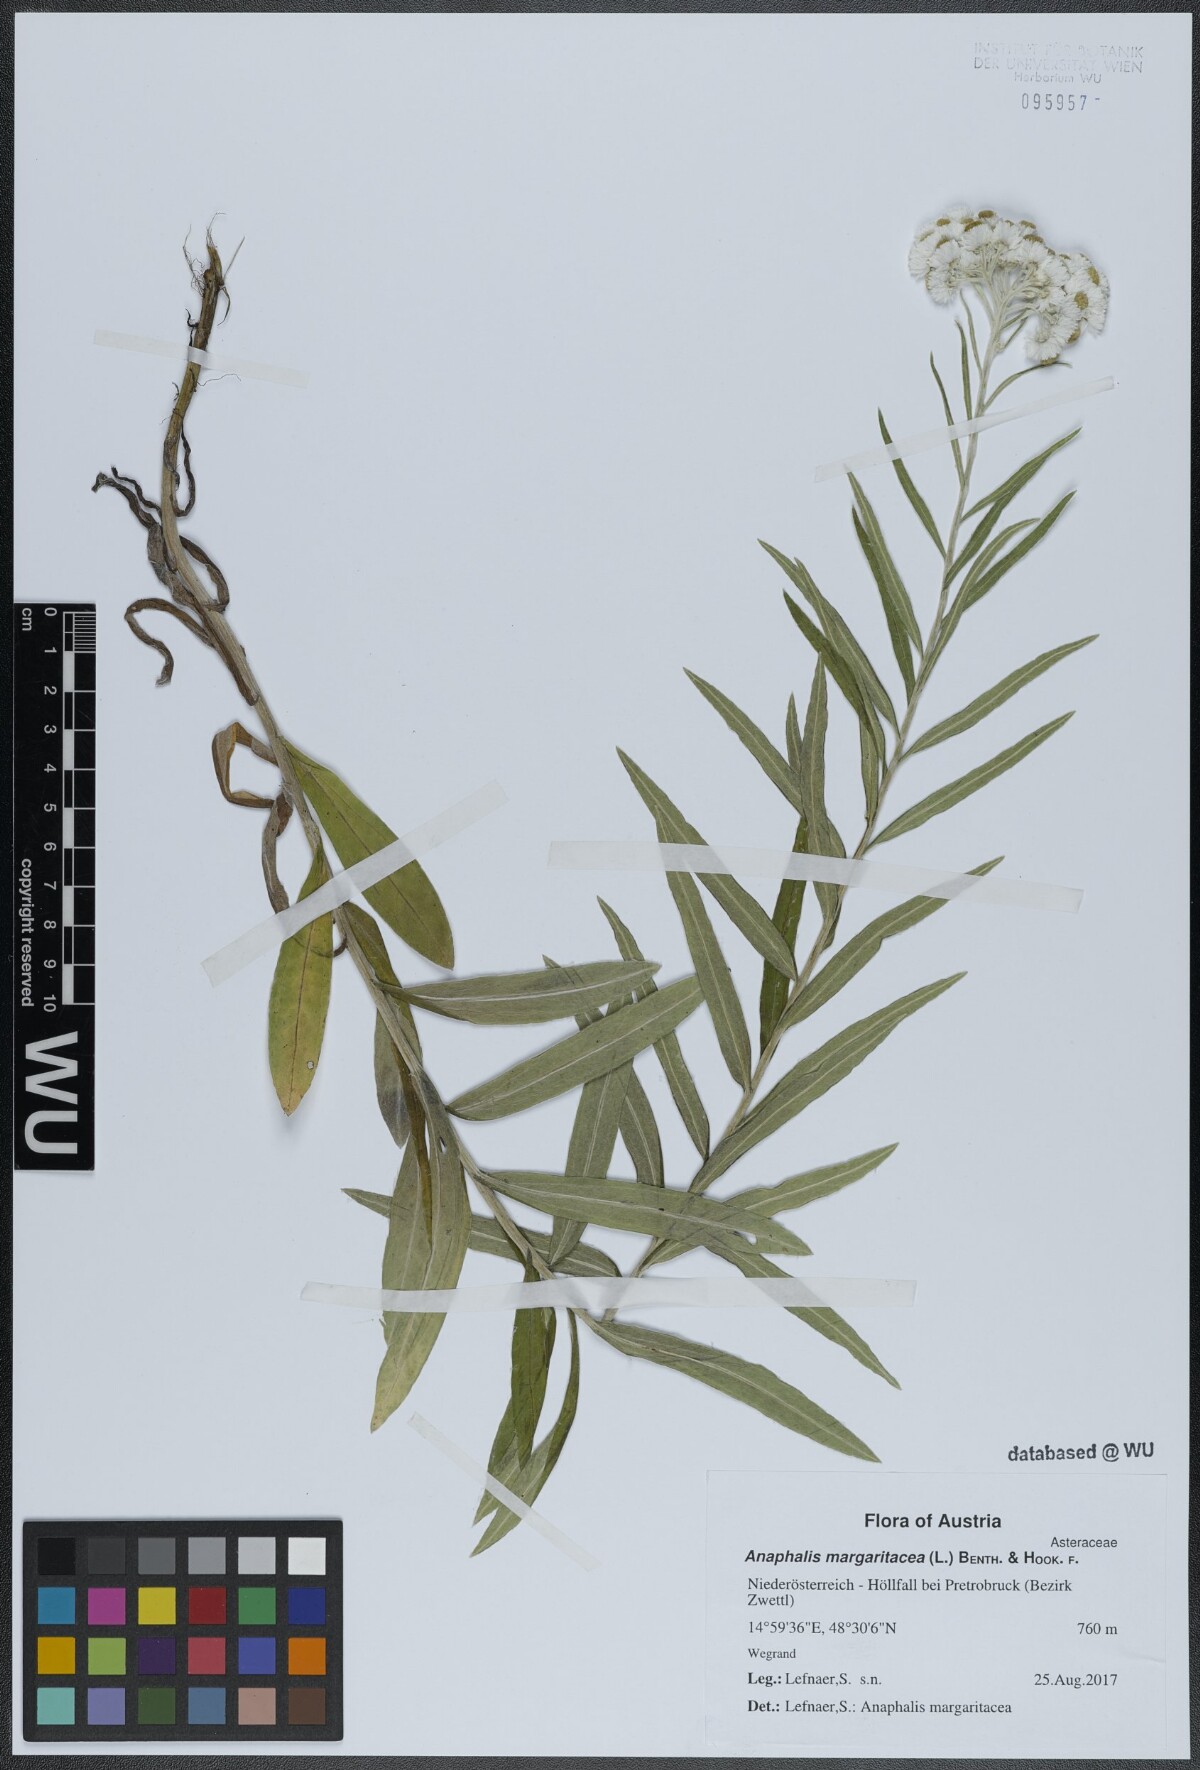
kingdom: Plantae
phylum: Tracheophyta
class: Magnoliopsida
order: Asterales
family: Asteraceae
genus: Anaphalis
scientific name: Anaphalis margaritacea
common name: Pearly everlasting
